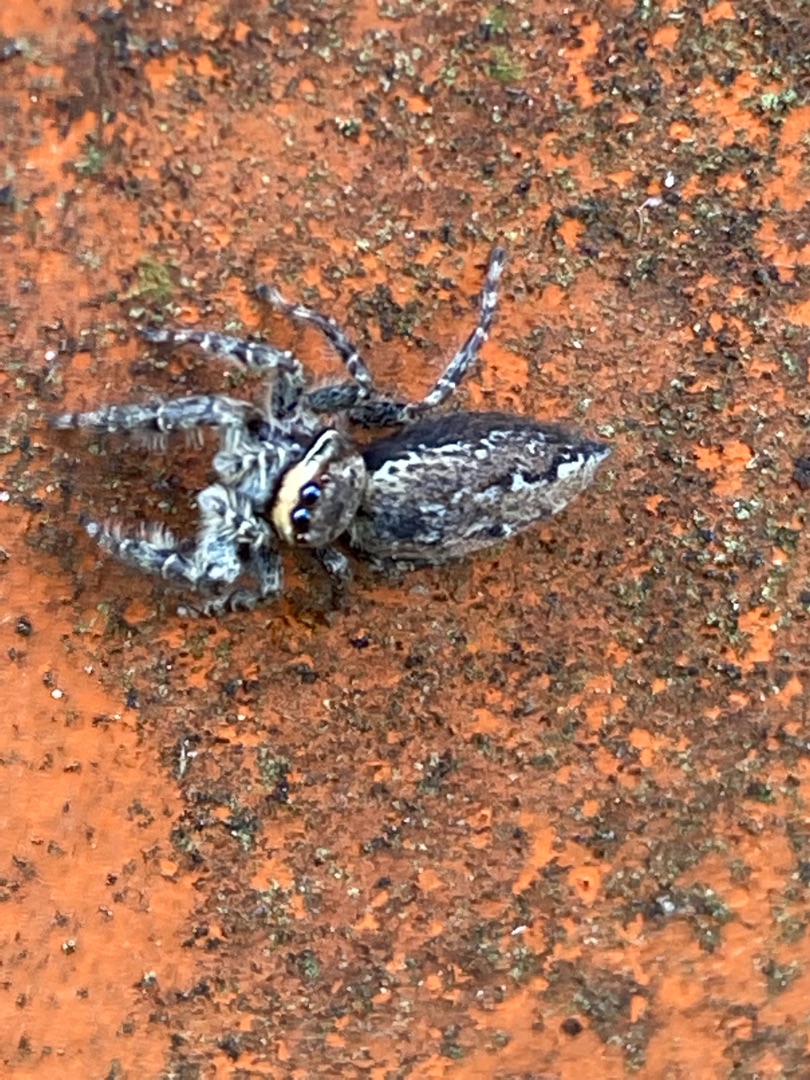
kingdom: Animalia
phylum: Arthropoda
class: Arachnida
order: Araneae
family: Salticidae
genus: Marpissa
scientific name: Marpissa muscosa
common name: Stor springedderkop
